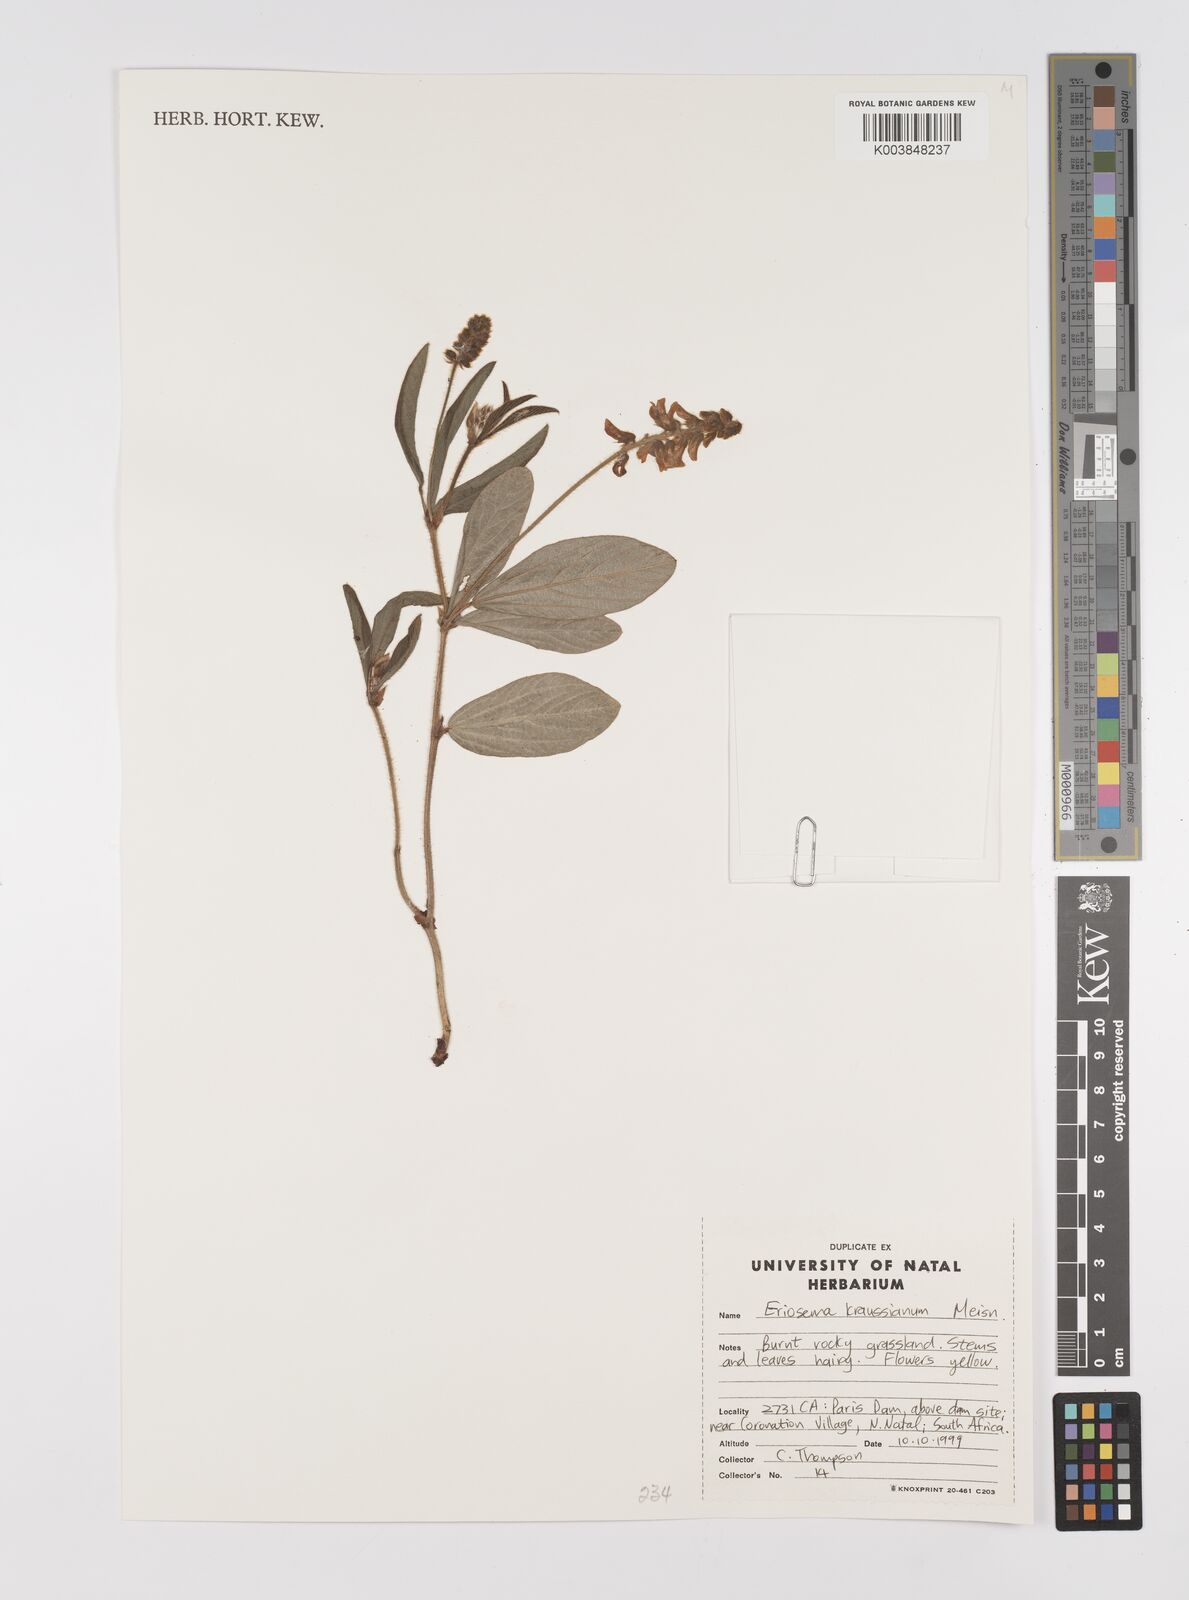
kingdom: Plantae
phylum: Tracheophyta
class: Magnoliopsida
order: Fabales
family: Fabaceae
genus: Eriosema
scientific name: Eriosema kraussianum
